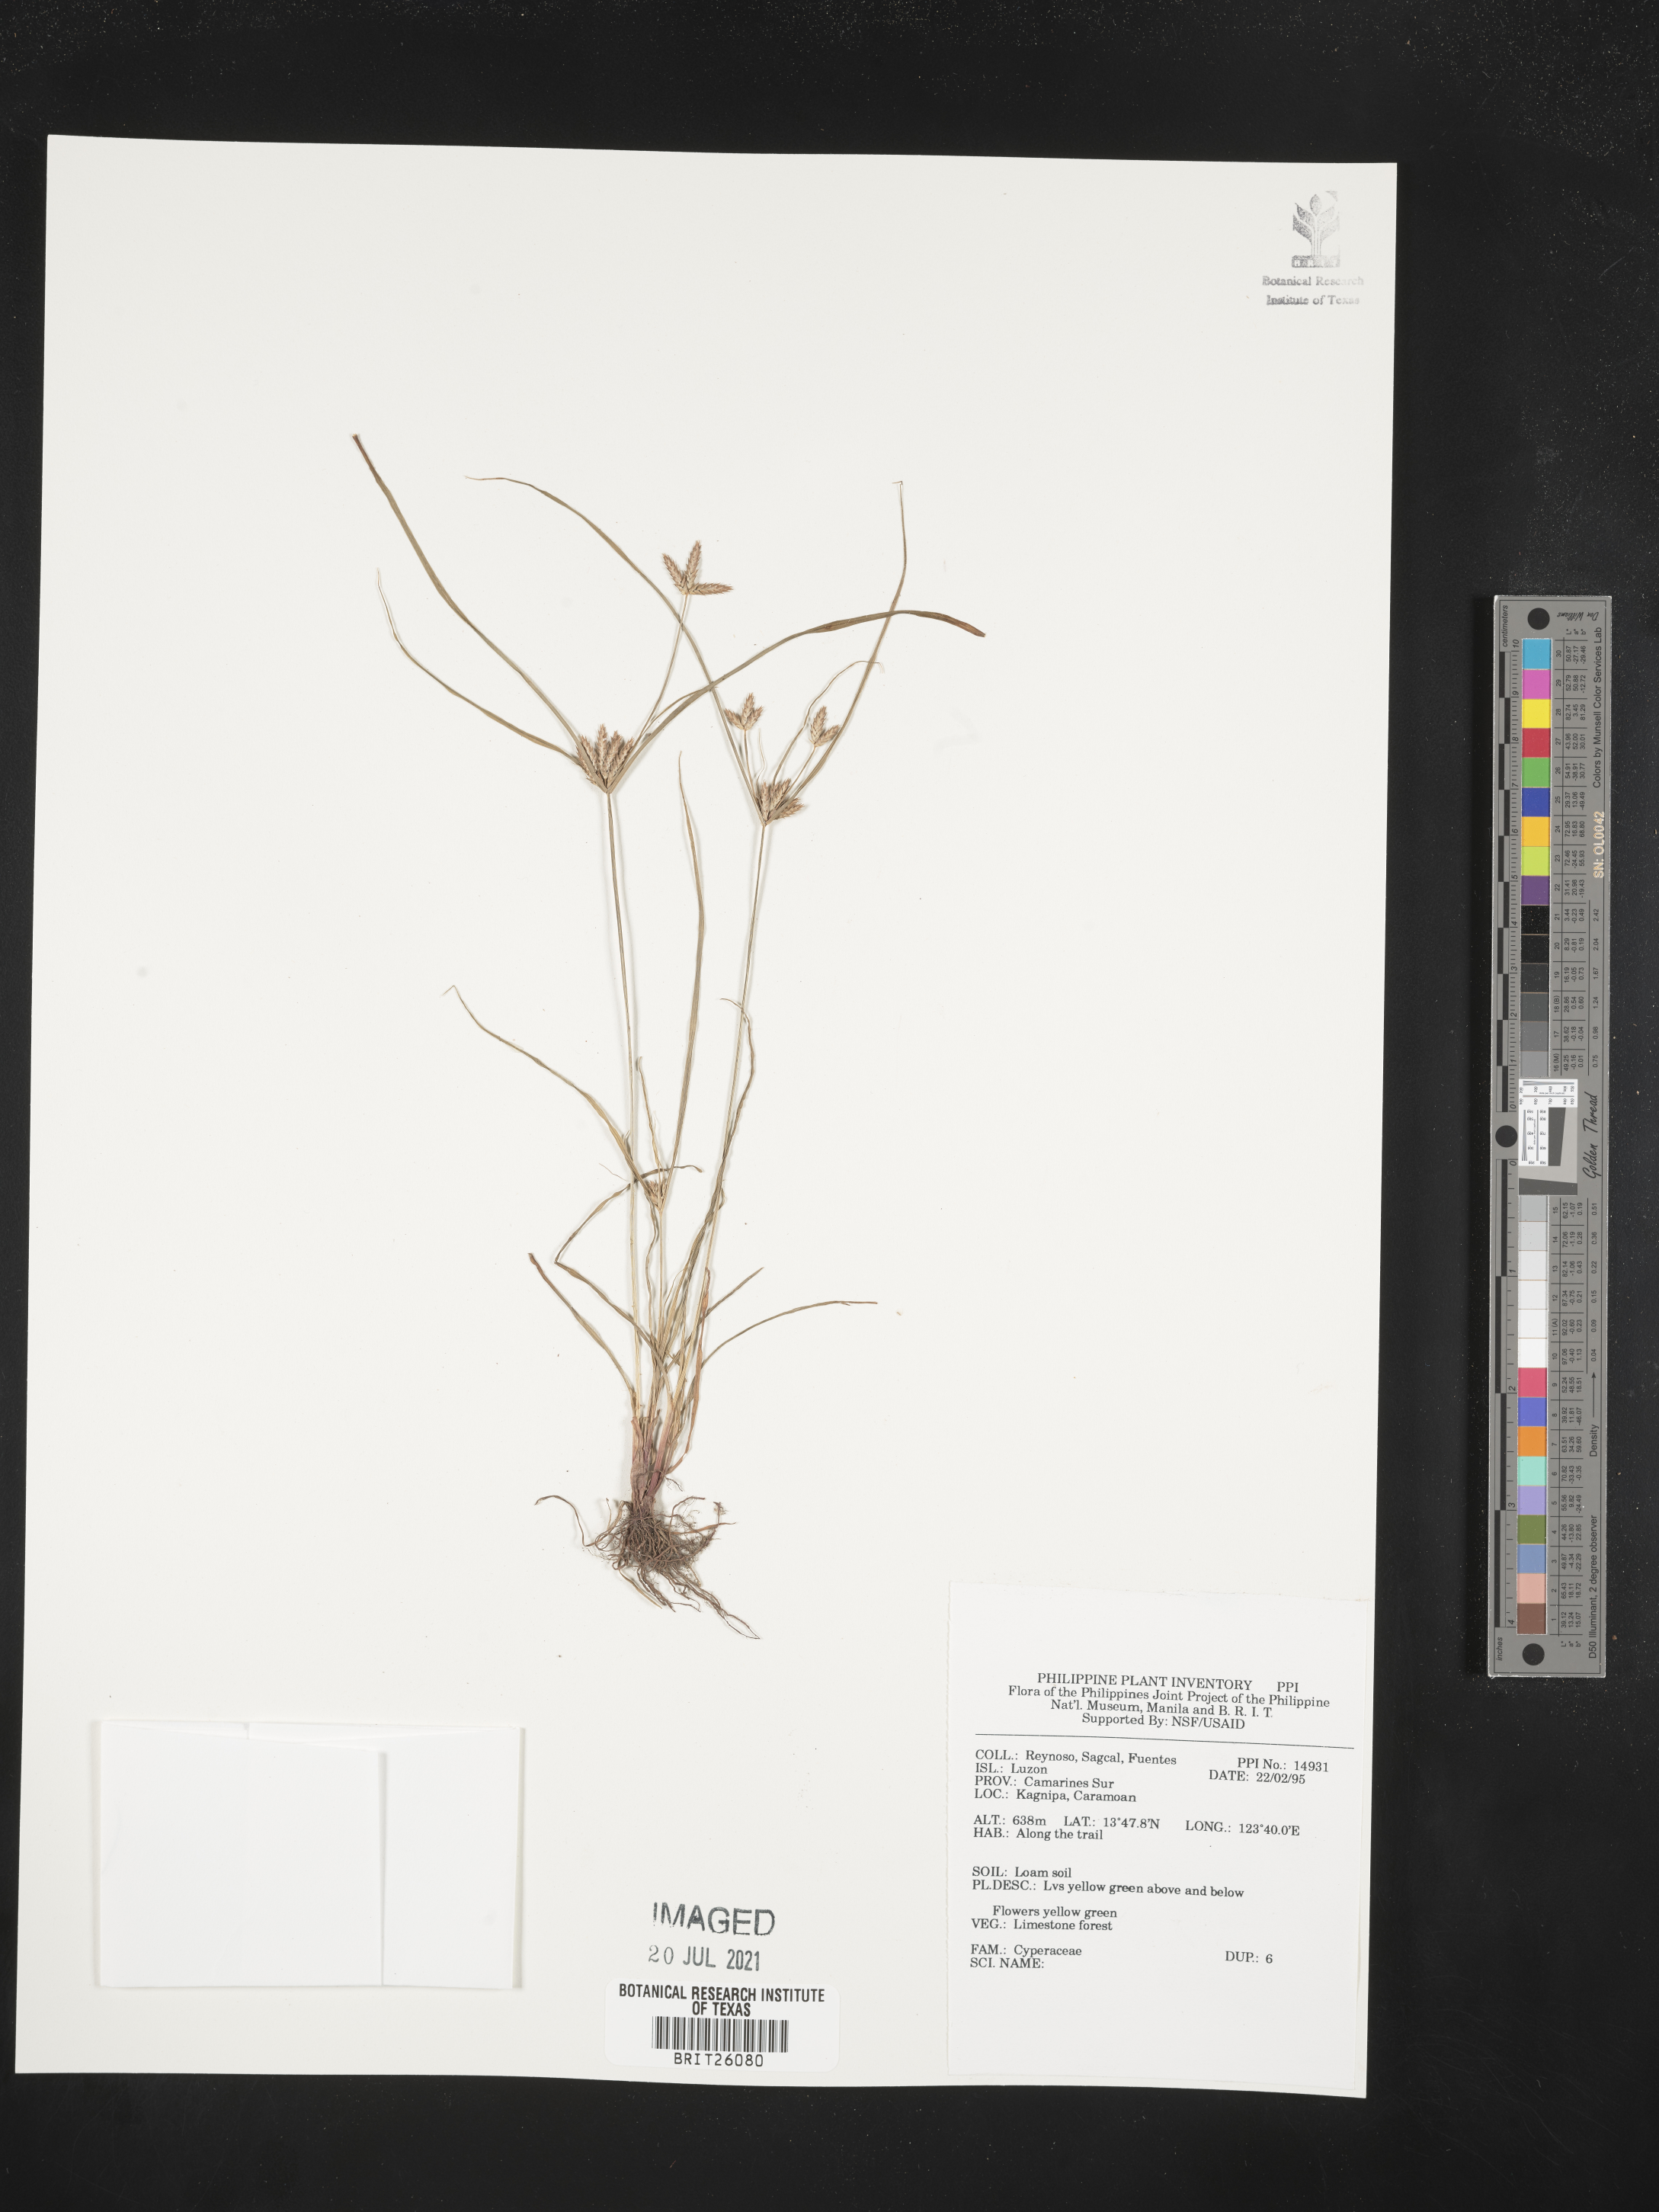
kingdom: Plantae
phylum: Tracheophyta
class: Liliopsida
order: Poales
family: Cyperaceae
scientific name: Cyperaceae
